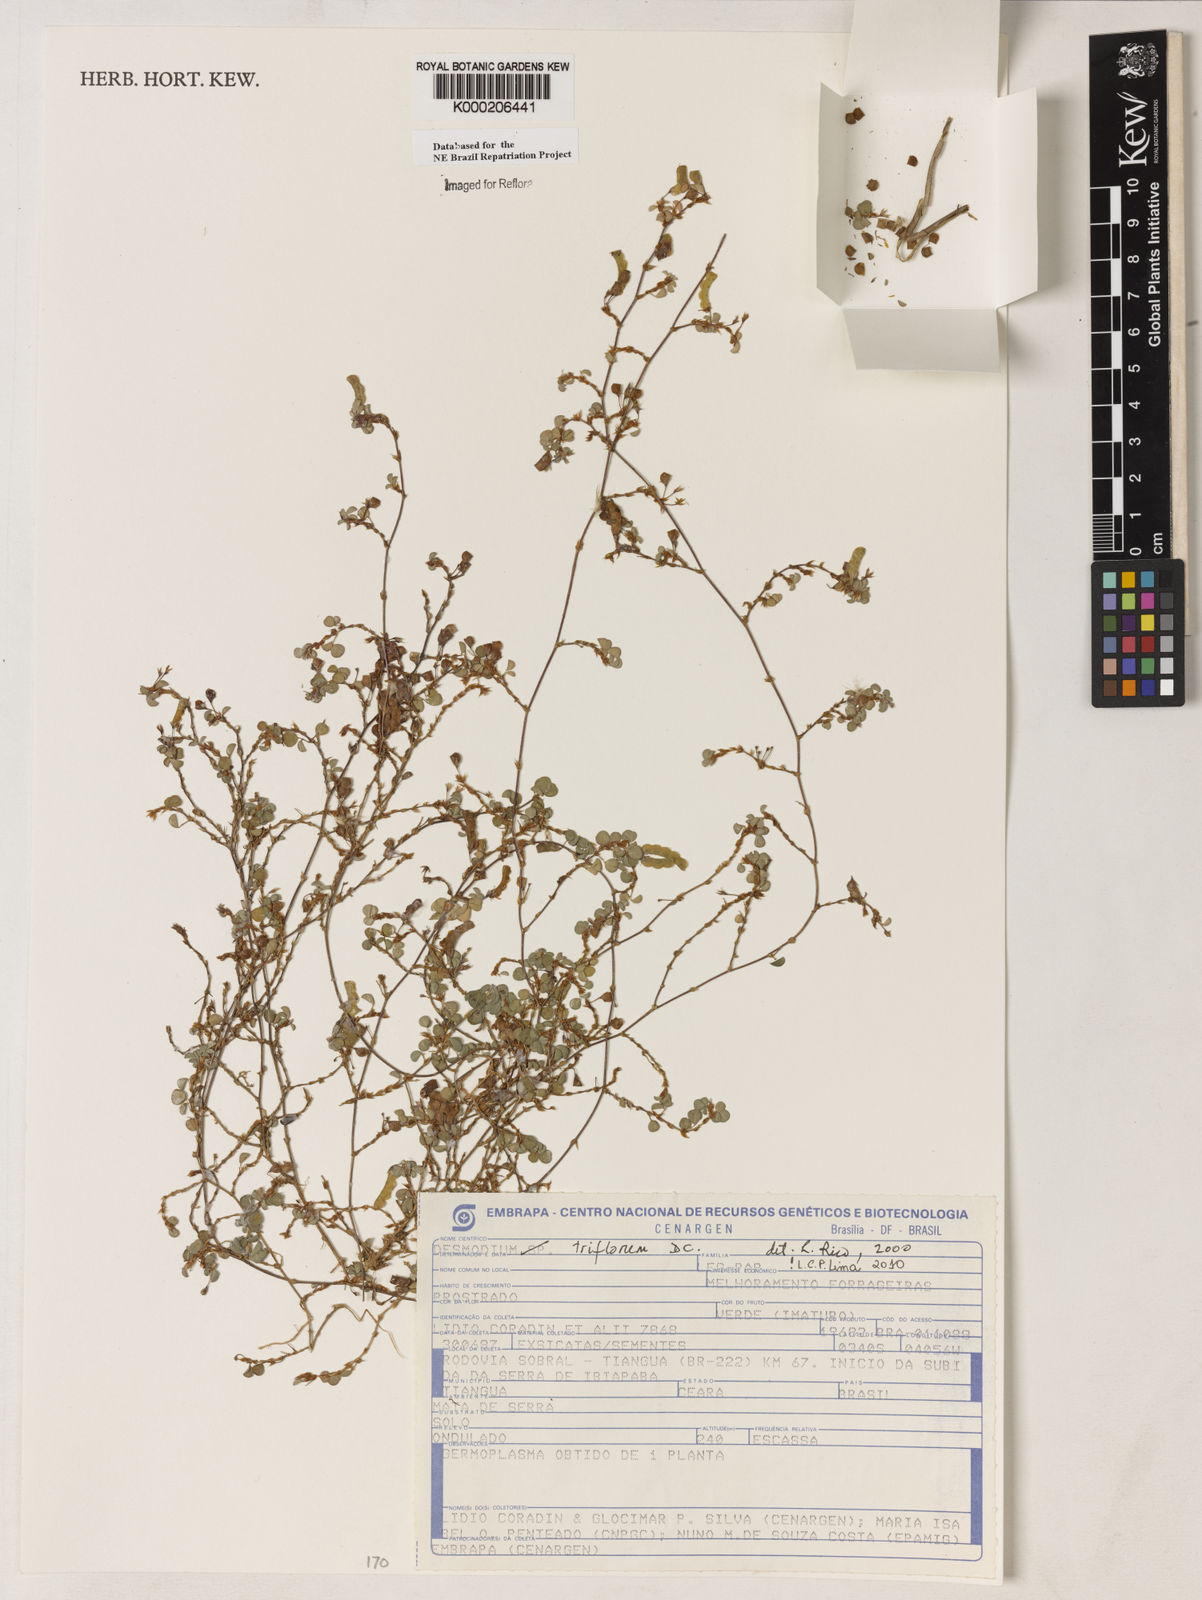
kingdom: Plantae
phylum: Tracheophyta
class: Magnoliopsida
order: Fabales
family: Fabaceae
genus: Grona
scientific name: Grona triflora
